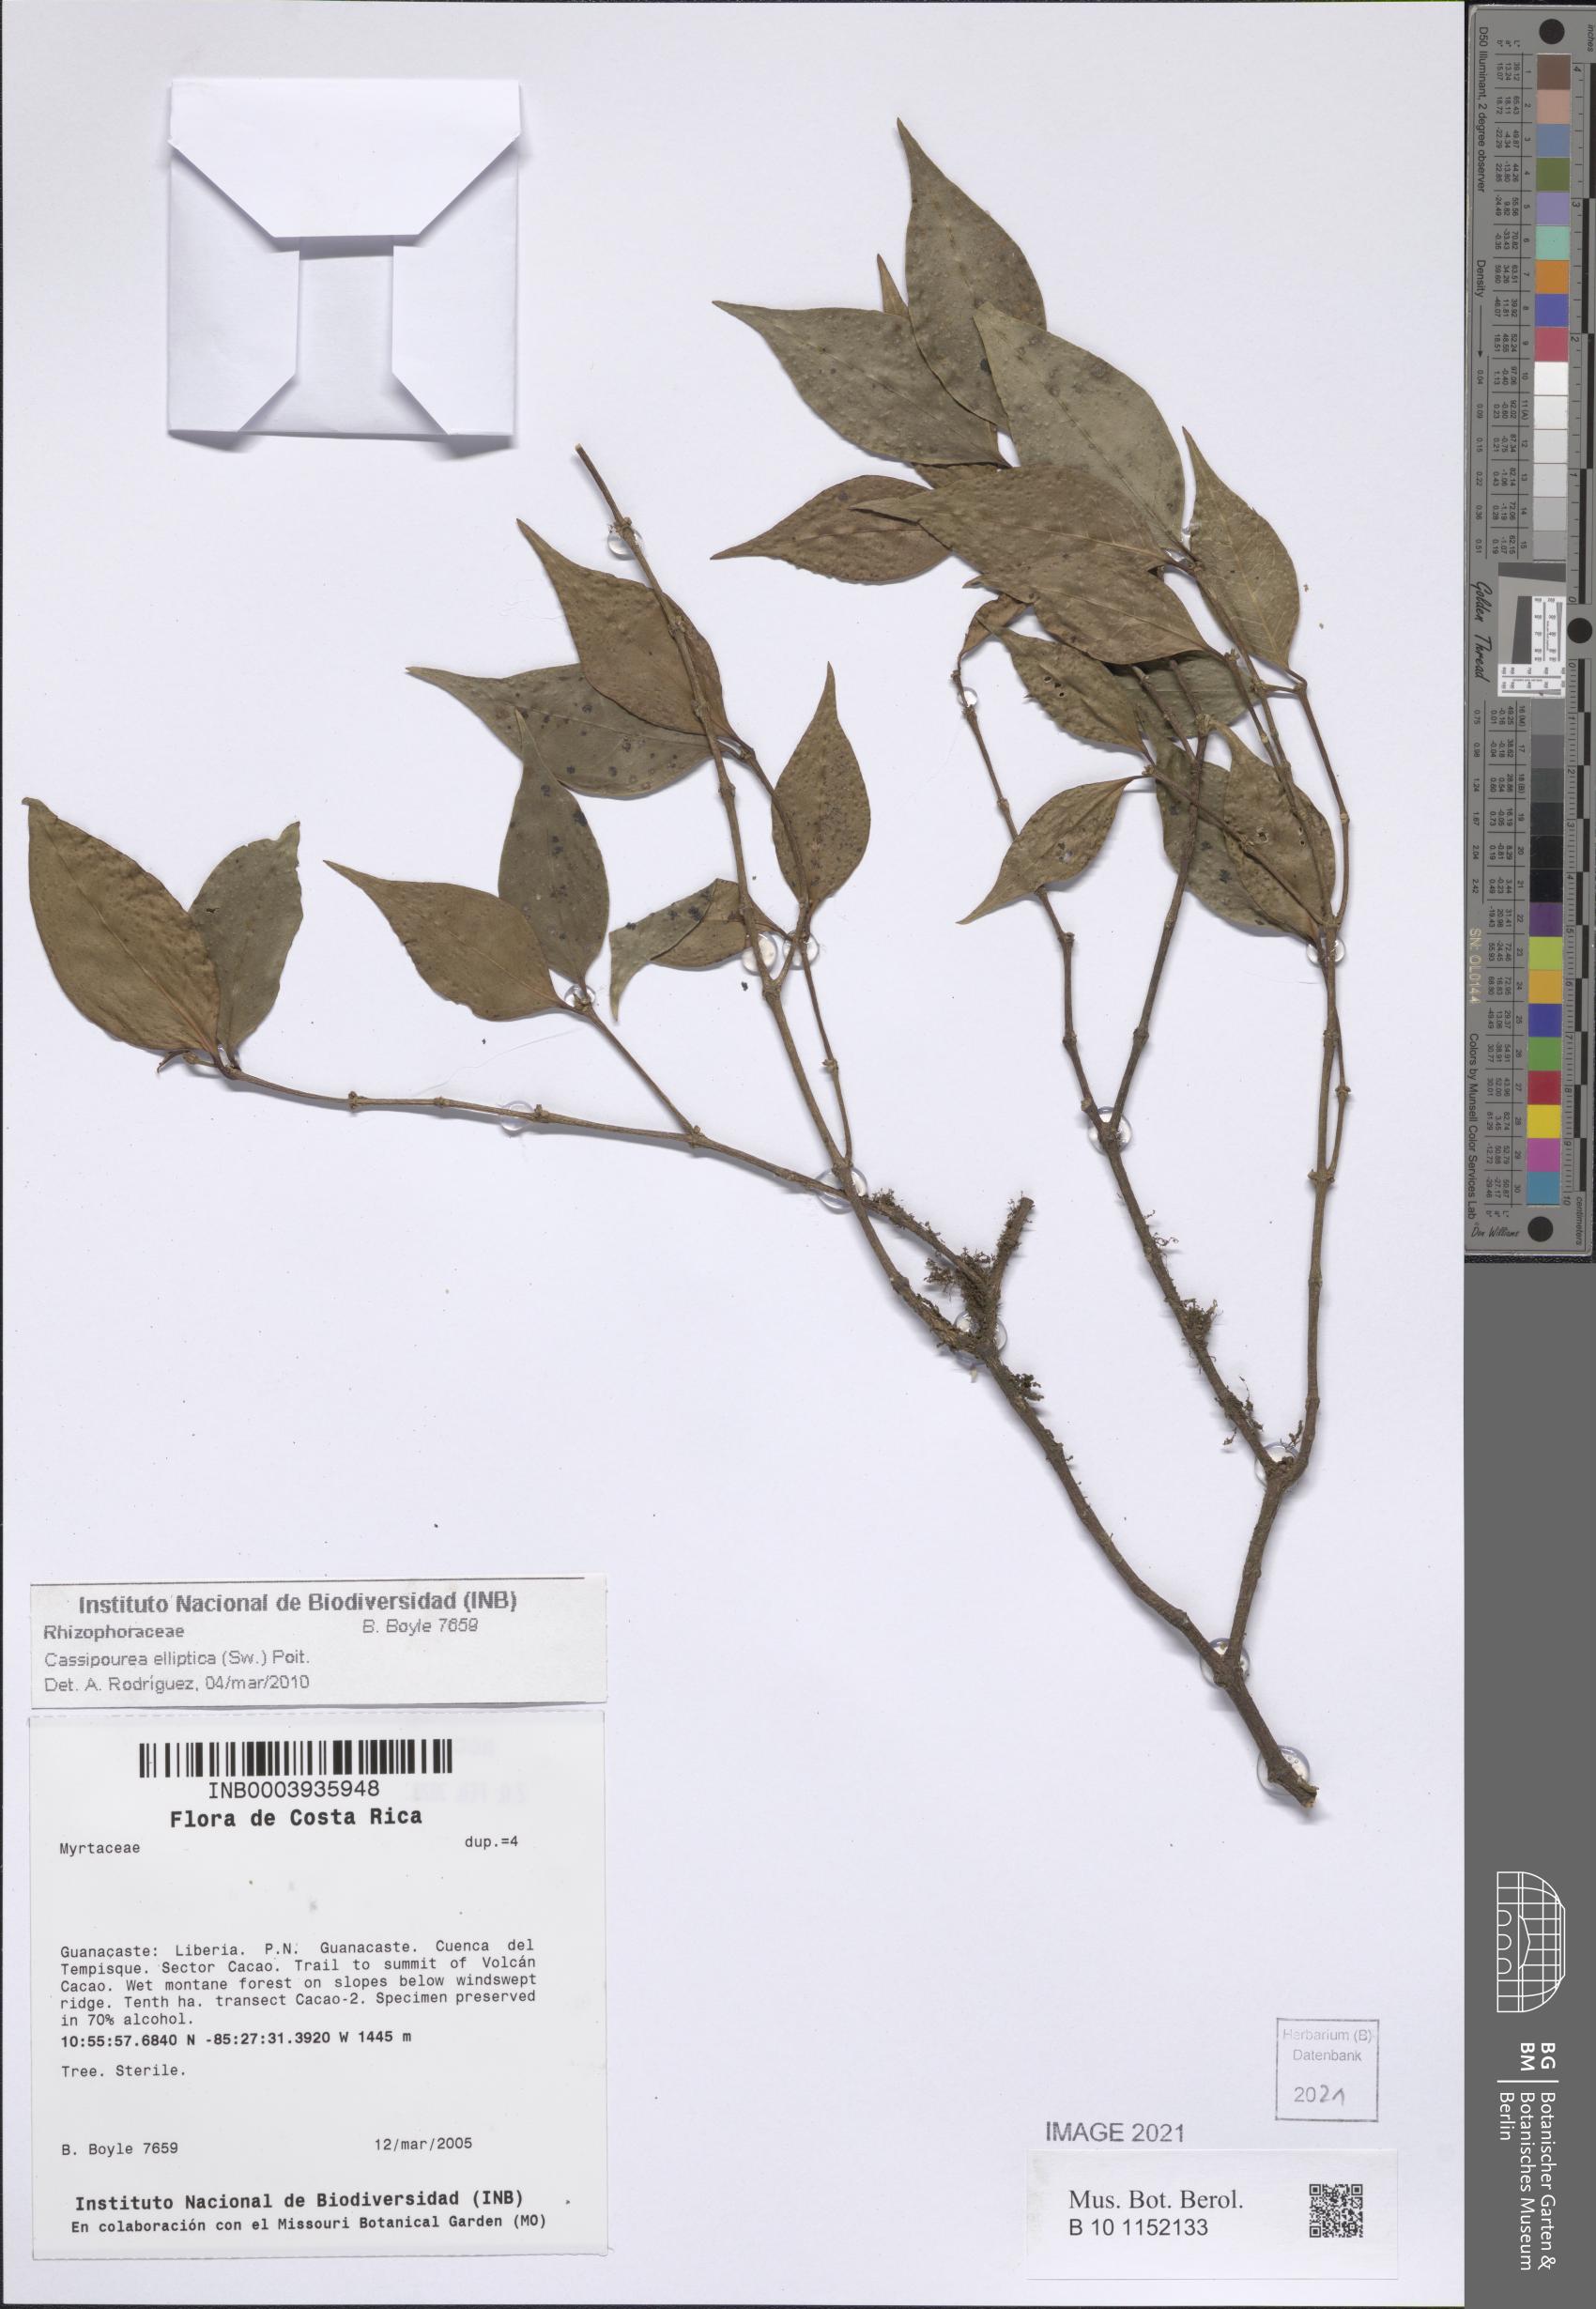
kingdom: Plantae
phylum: Tracheophyta
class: Magnoliopsida
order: Malpighiales
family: Rhizophoraceae
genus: Cassipourea
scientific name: Cassipourea elliptica
